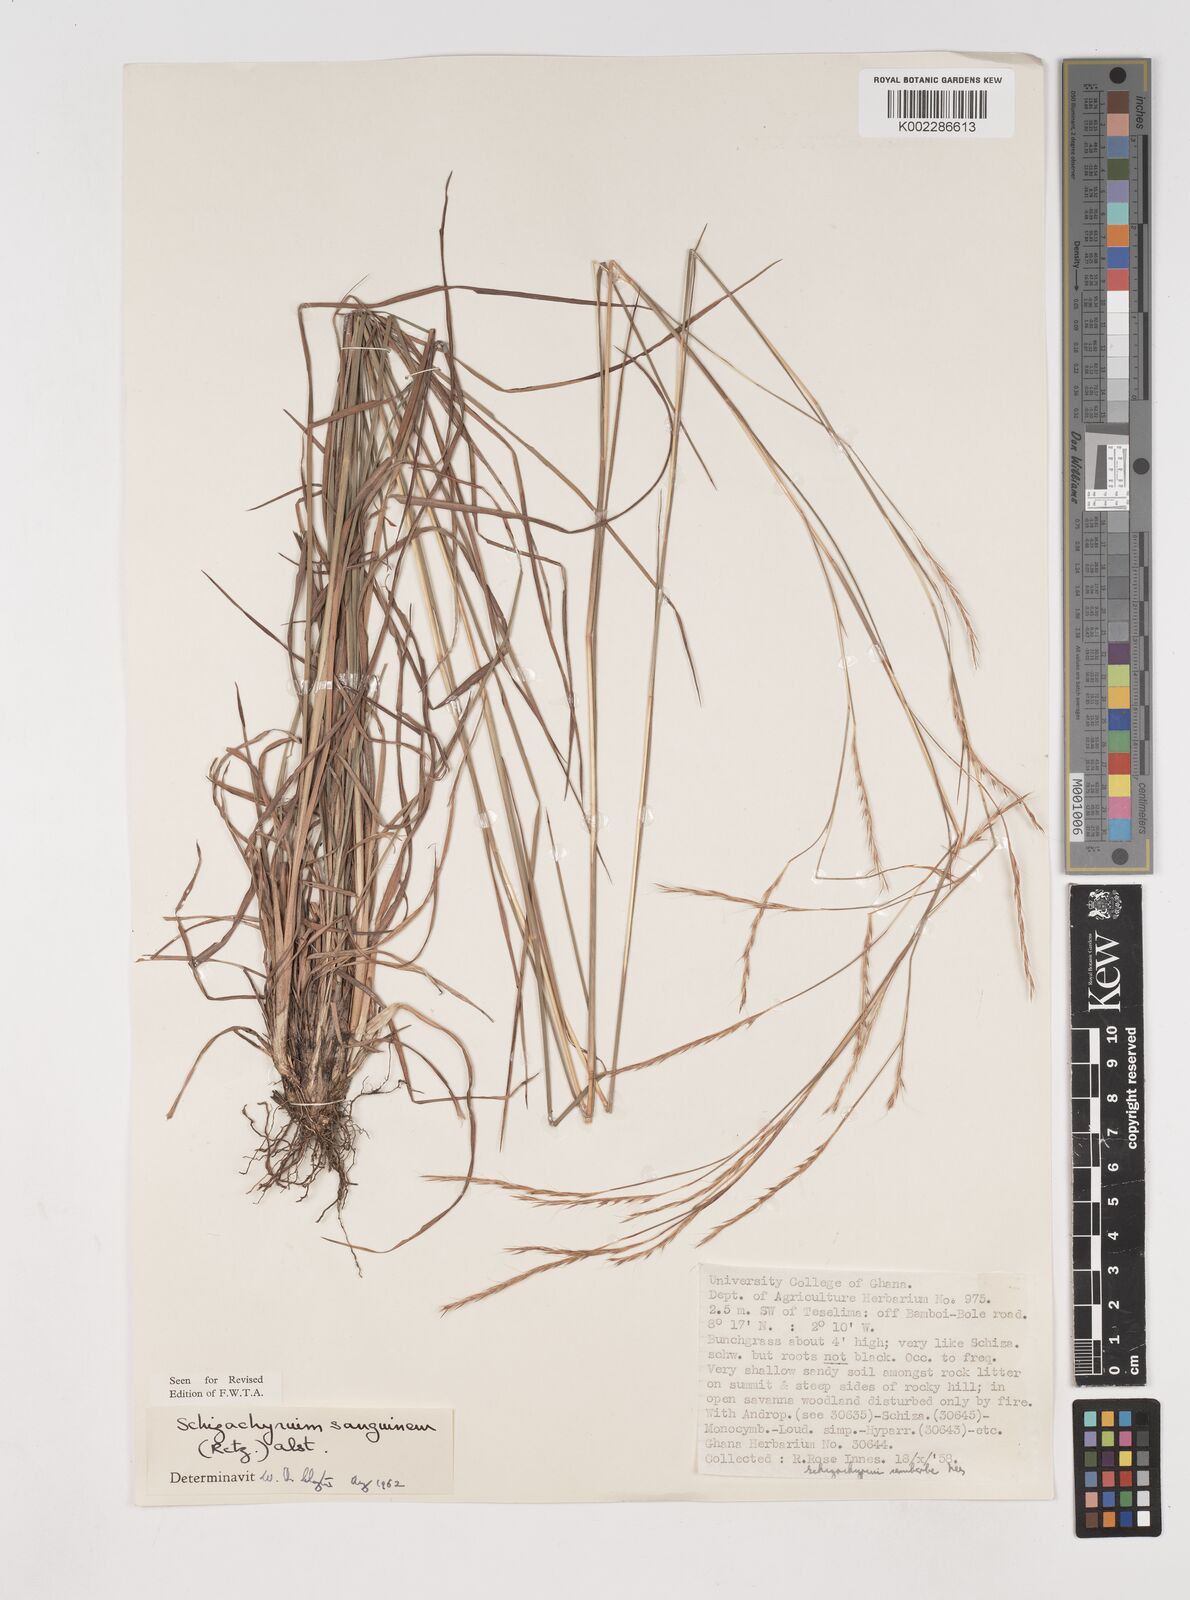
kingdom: Plantae
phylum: Tracheophyta
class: Liliopsida
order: Poales
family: Poaceae
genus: Schizachyrium
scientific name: Schizachyrium sanguineum
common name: Crimson bluestem
